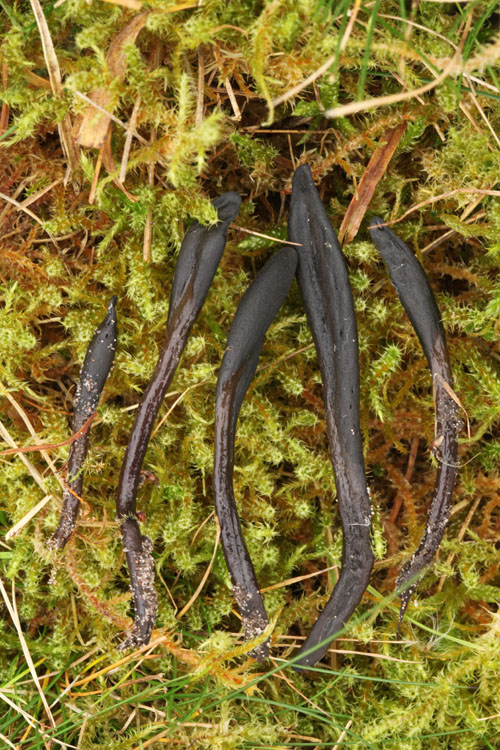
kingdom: Fungi
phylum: Ascomycota
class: Geoglossomycetes
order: Geoglossales
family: Geoglossaceae
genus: Glutinoglossum
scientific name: Glutinoglossum glutinosum
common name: slimet jordtunge
